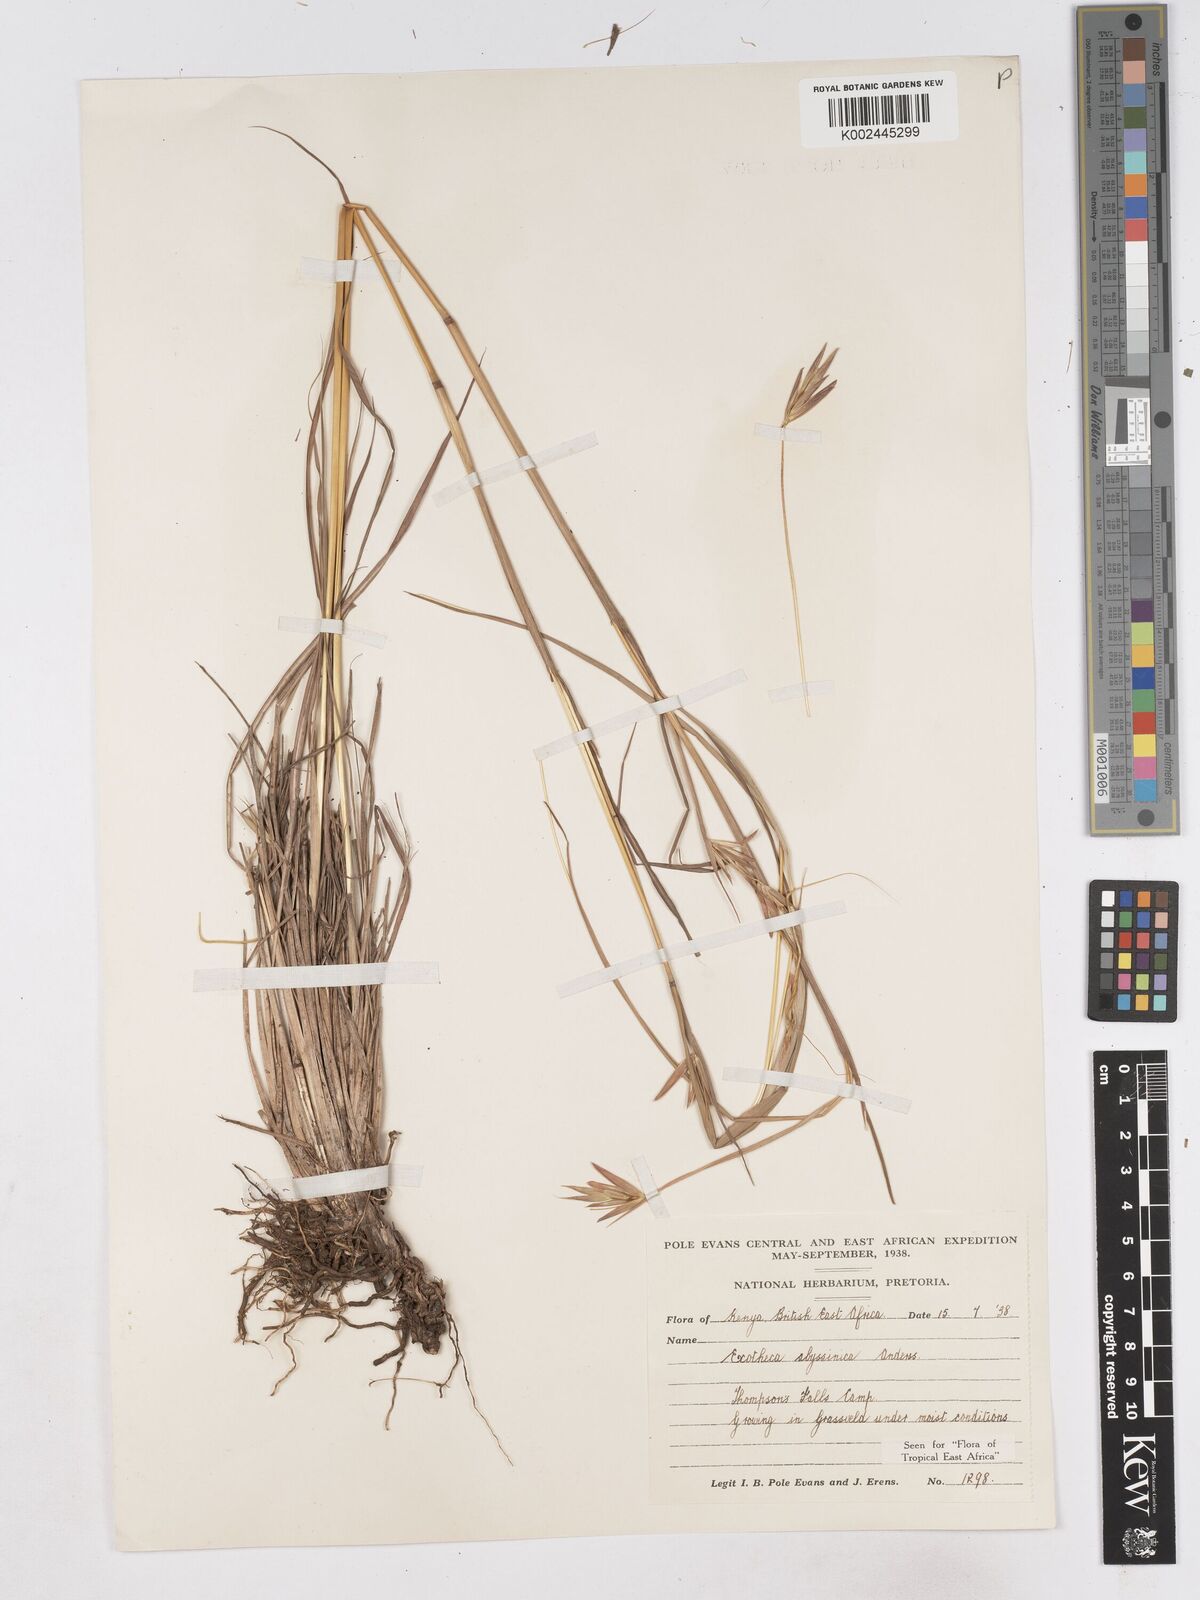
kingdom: Plantae
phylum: Tracheophyta
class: Liliopsida
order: Poales
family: Poaceae
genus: Exotheca
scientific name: Exotheca abyssinica
